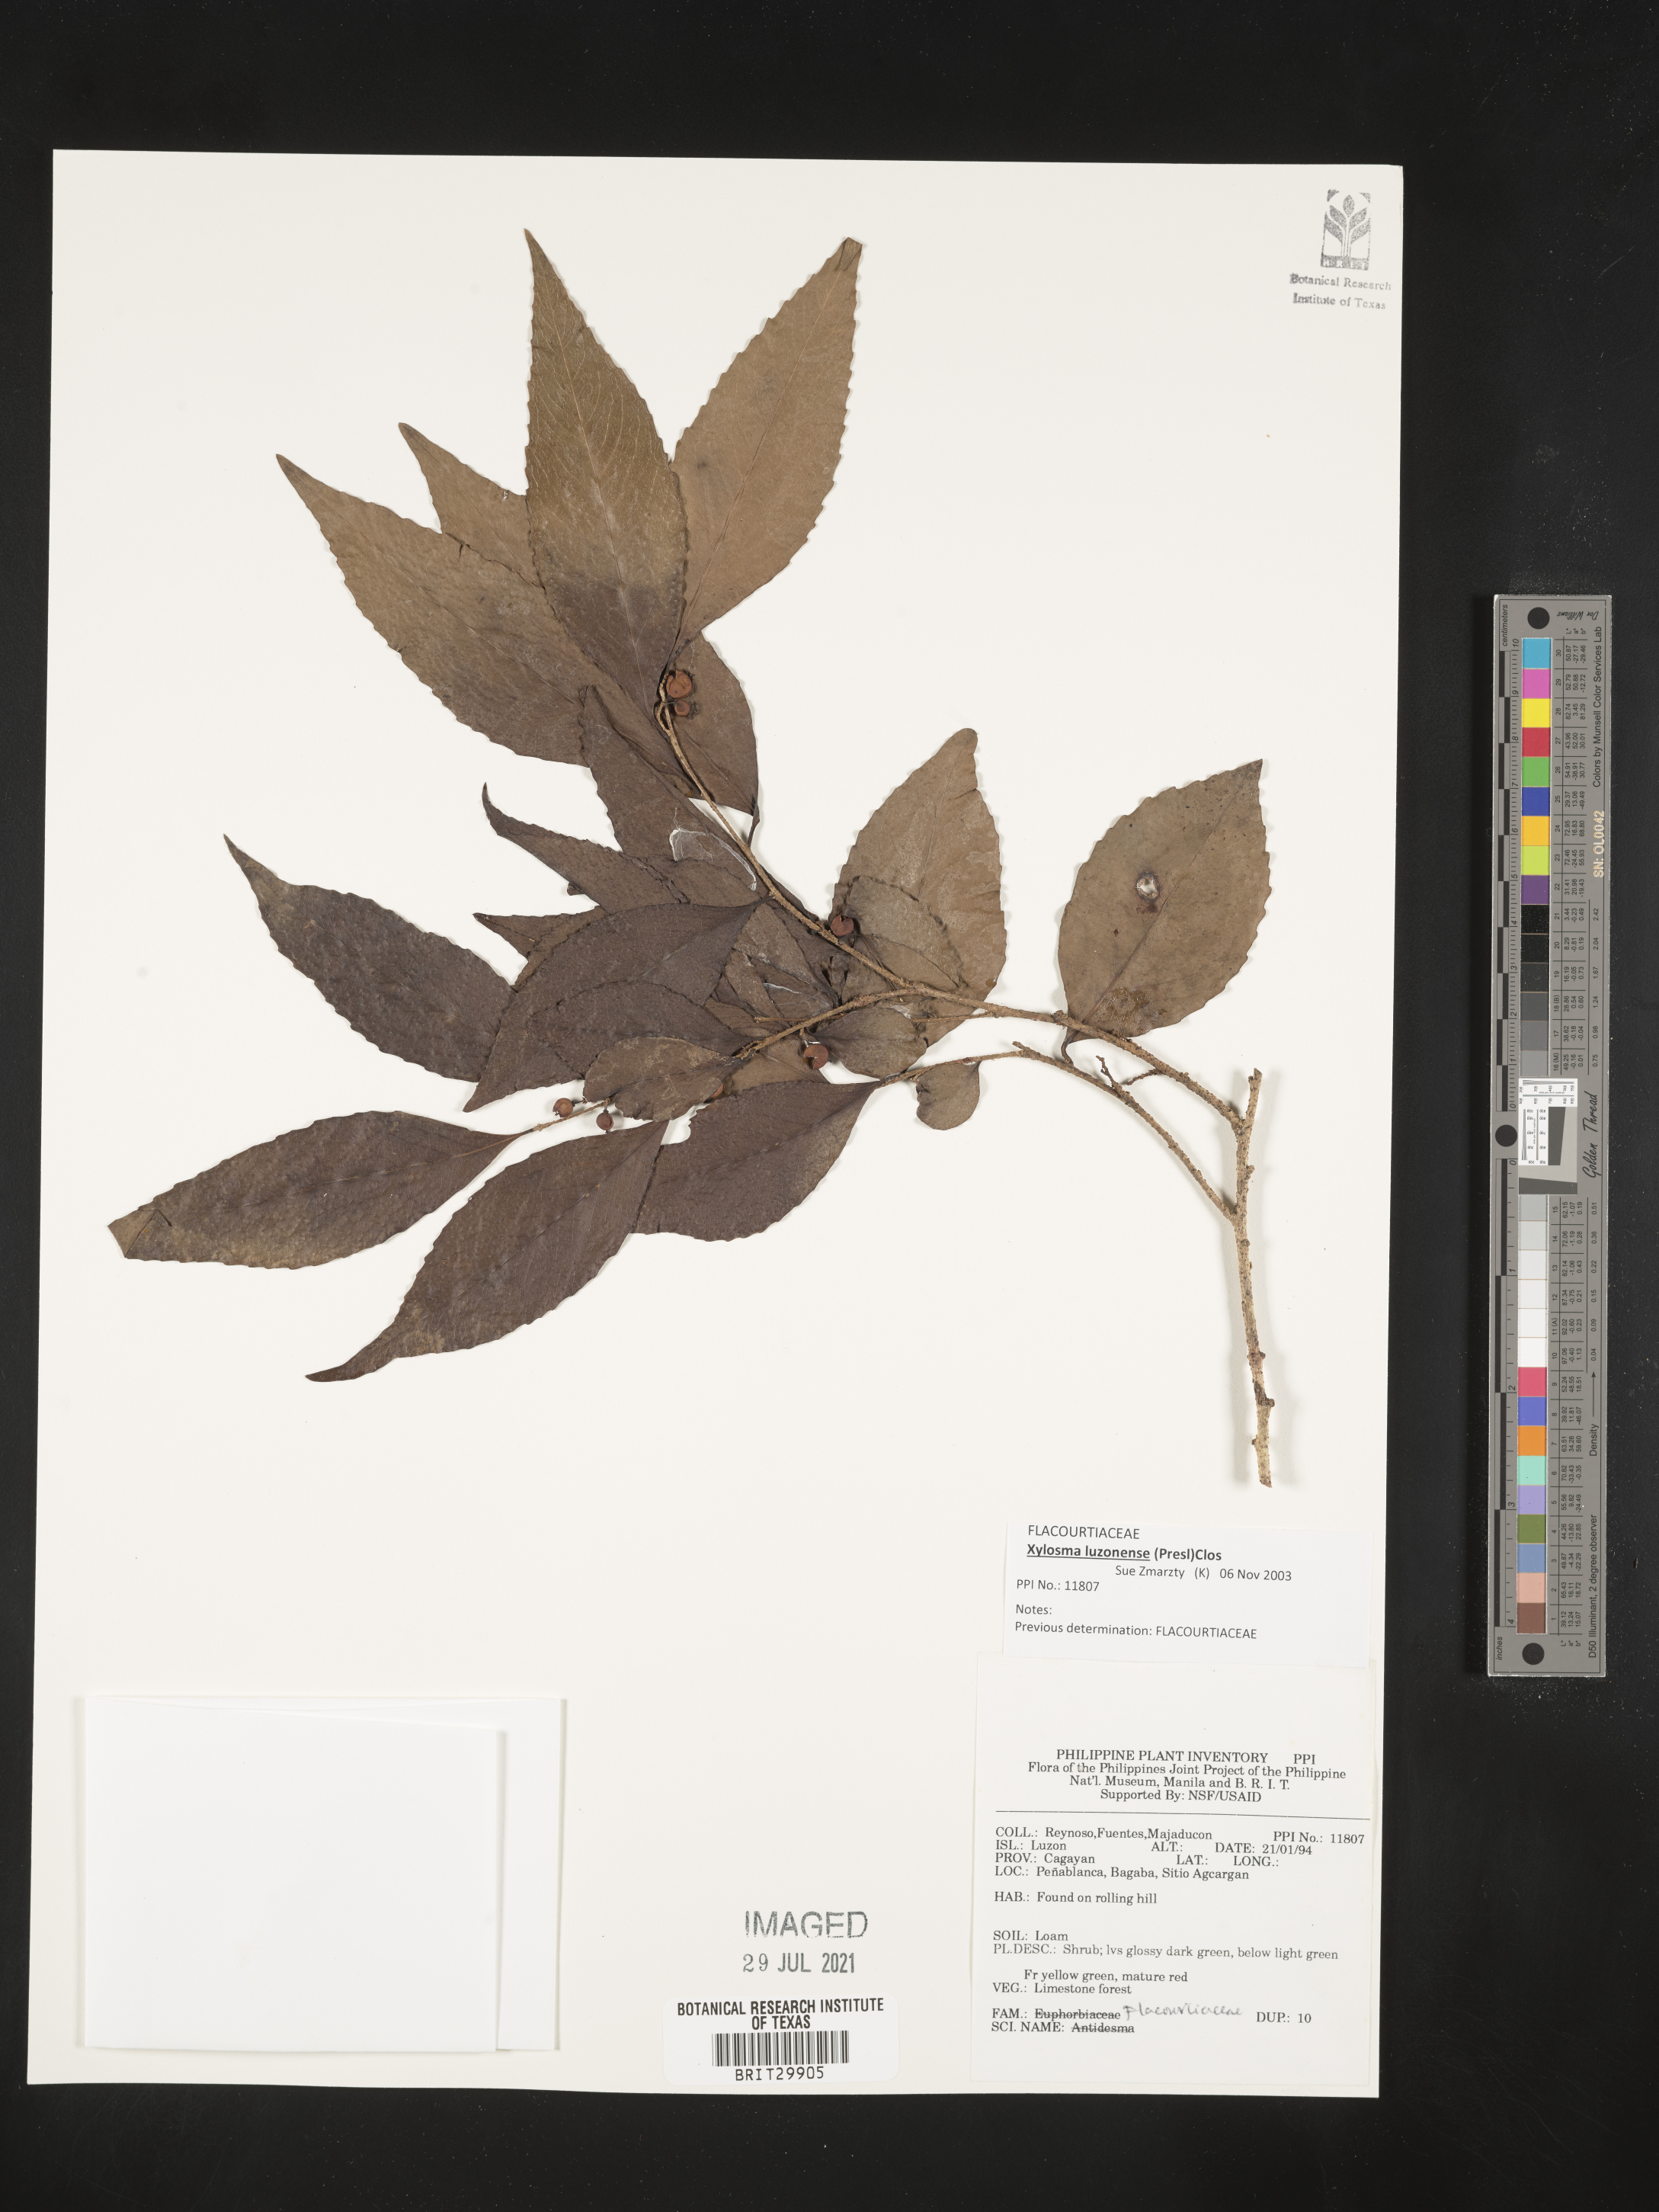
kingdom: Plantae
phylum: Tracheophyta
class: Magnoliopsida
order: Malpighiales
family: Flacourtiaceae
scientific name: Flacourtiaceae
